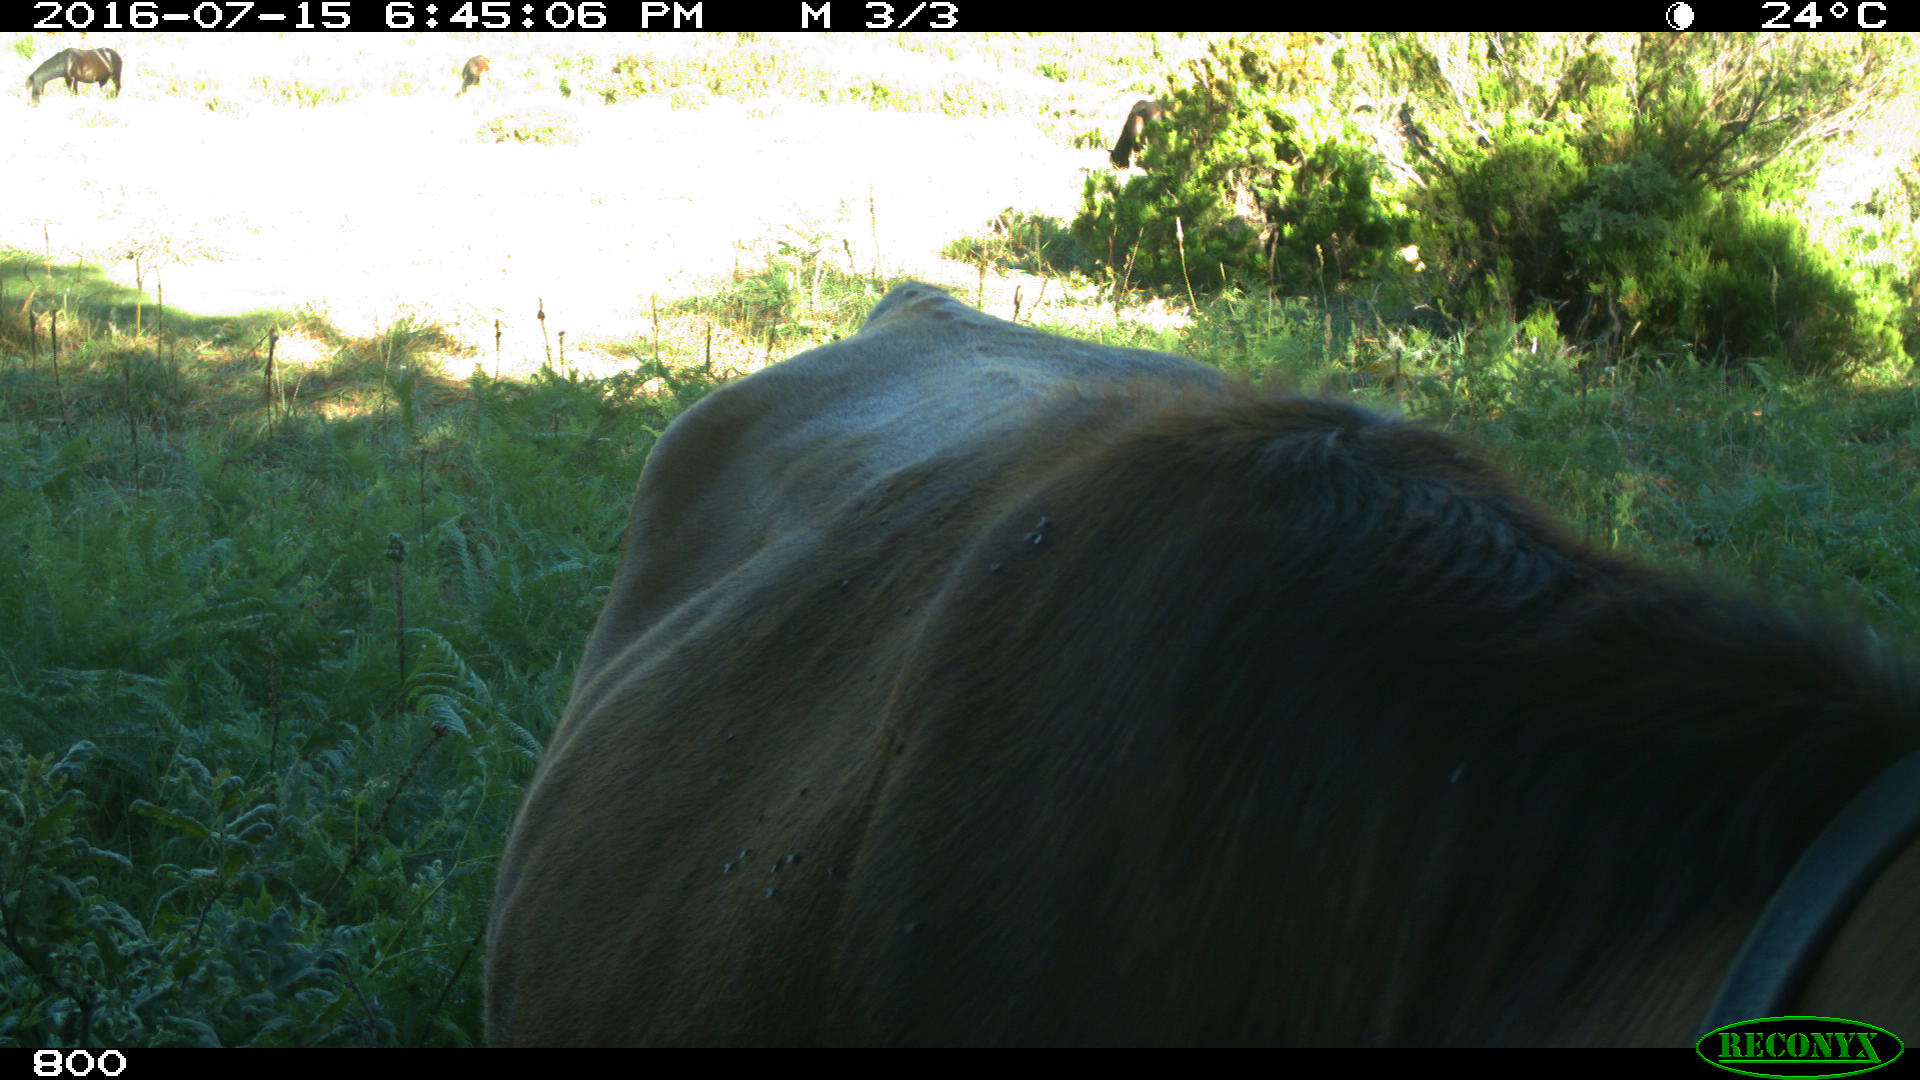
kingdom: Animalia
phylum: Chordata
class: Mammalia
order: Artiodactyla
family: Bovidae
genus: Bos
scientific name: Bos taurus
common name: Domesticated cattle
